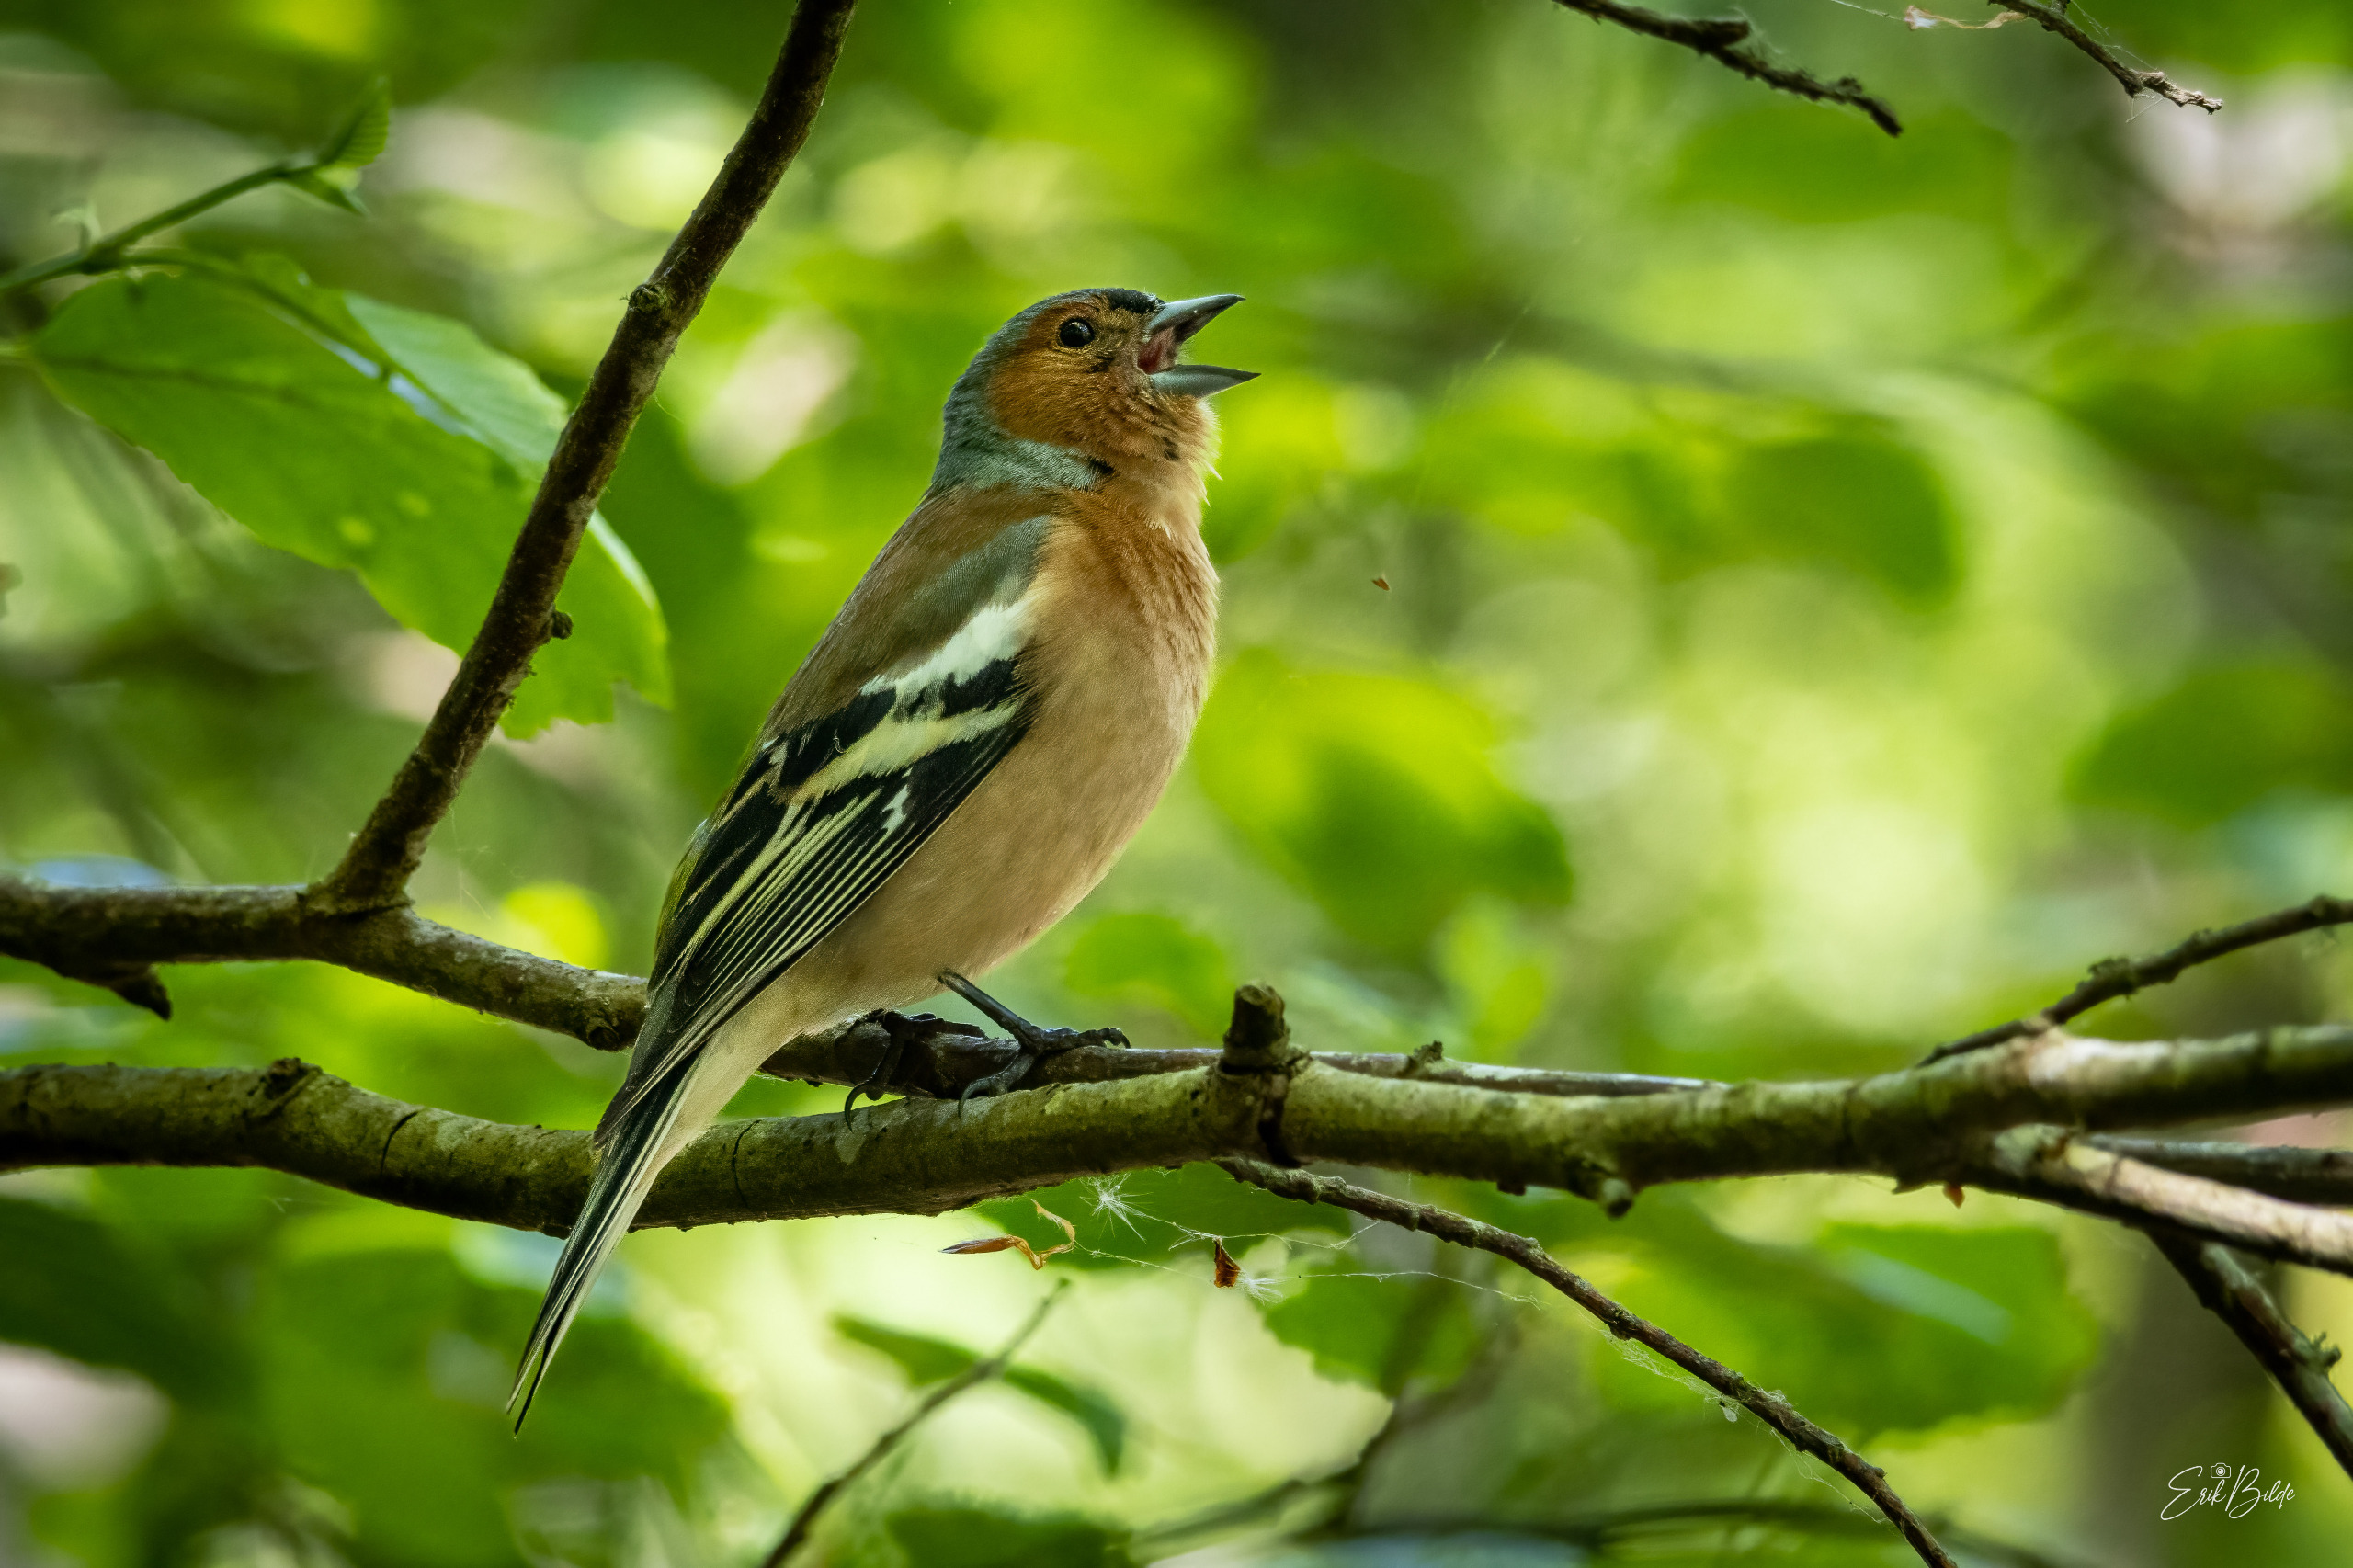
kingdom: Animalia
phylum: Chordata
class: Aves
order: Passeriformes
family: Fringillidae
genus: Fringilla
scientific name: Fringilla coelebs
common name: Bogfinke
